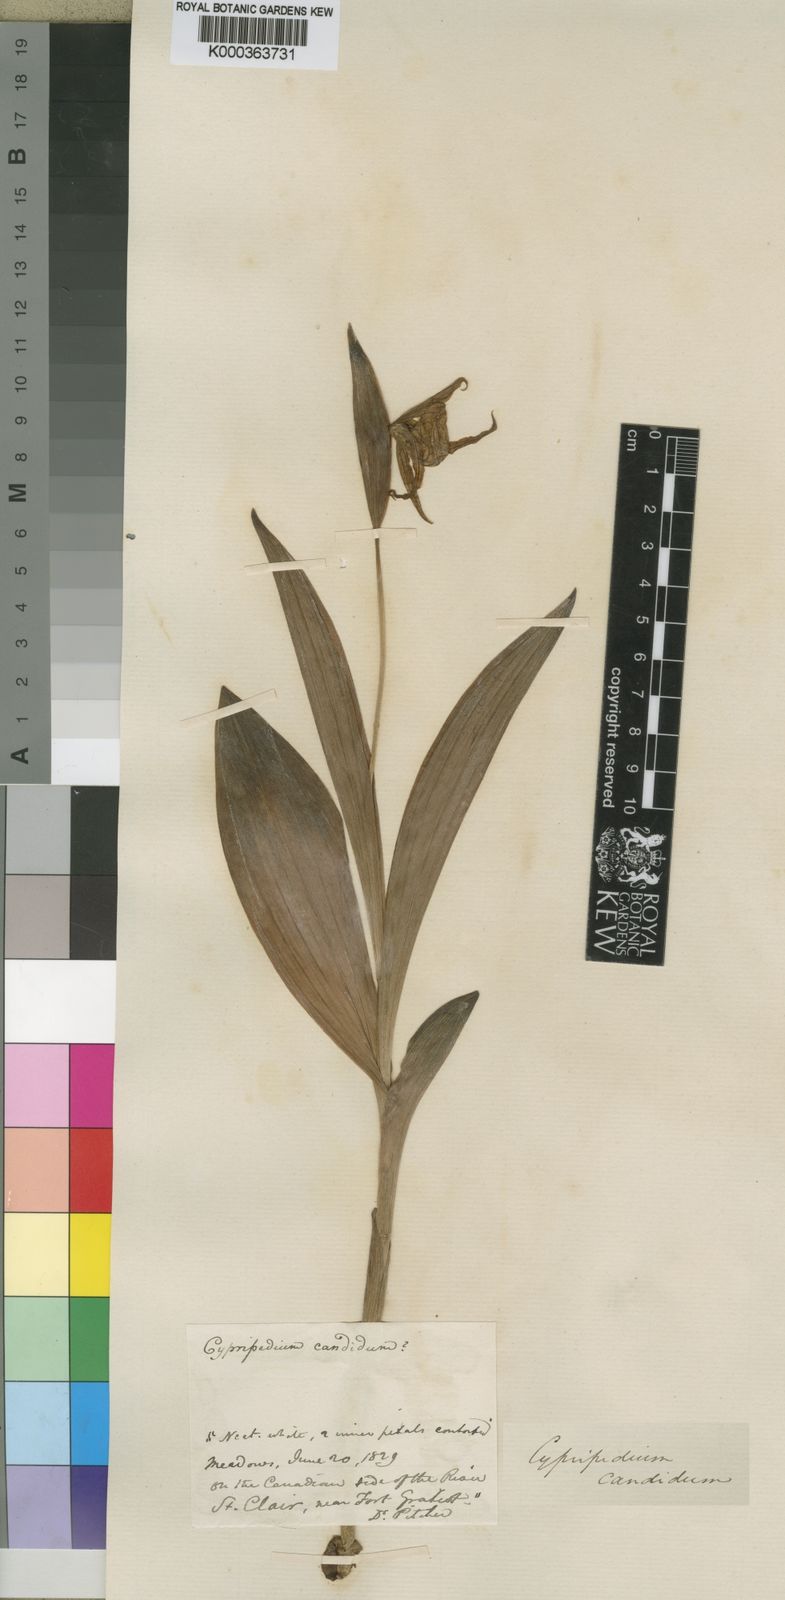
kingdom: Plantae
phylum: Tracheophyta
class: Liliopsida
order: Asparagales
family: Orchidaceae
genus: Cypripedium
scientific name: Cypripedium candidum
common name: White lady's-slipper
